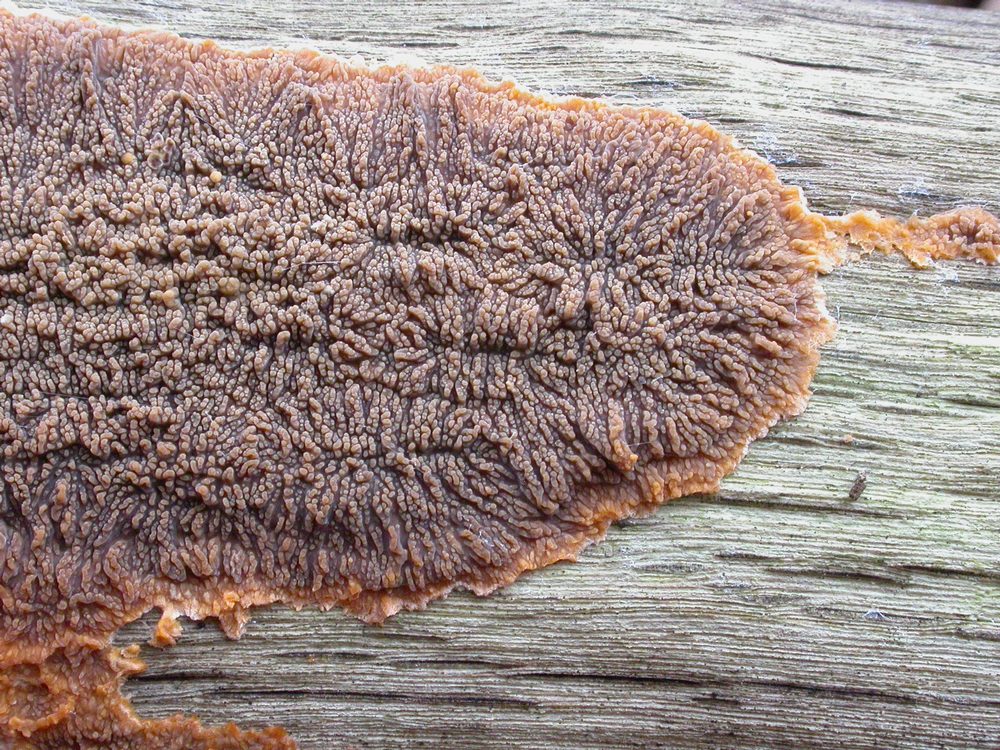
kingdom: Fungi
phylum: Basidiomycota
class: Agaricomycetes
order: Polyporales
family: Meruliaceae
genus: Phlebia
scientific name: Phlebia radiata
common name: stråle-åresvamp
